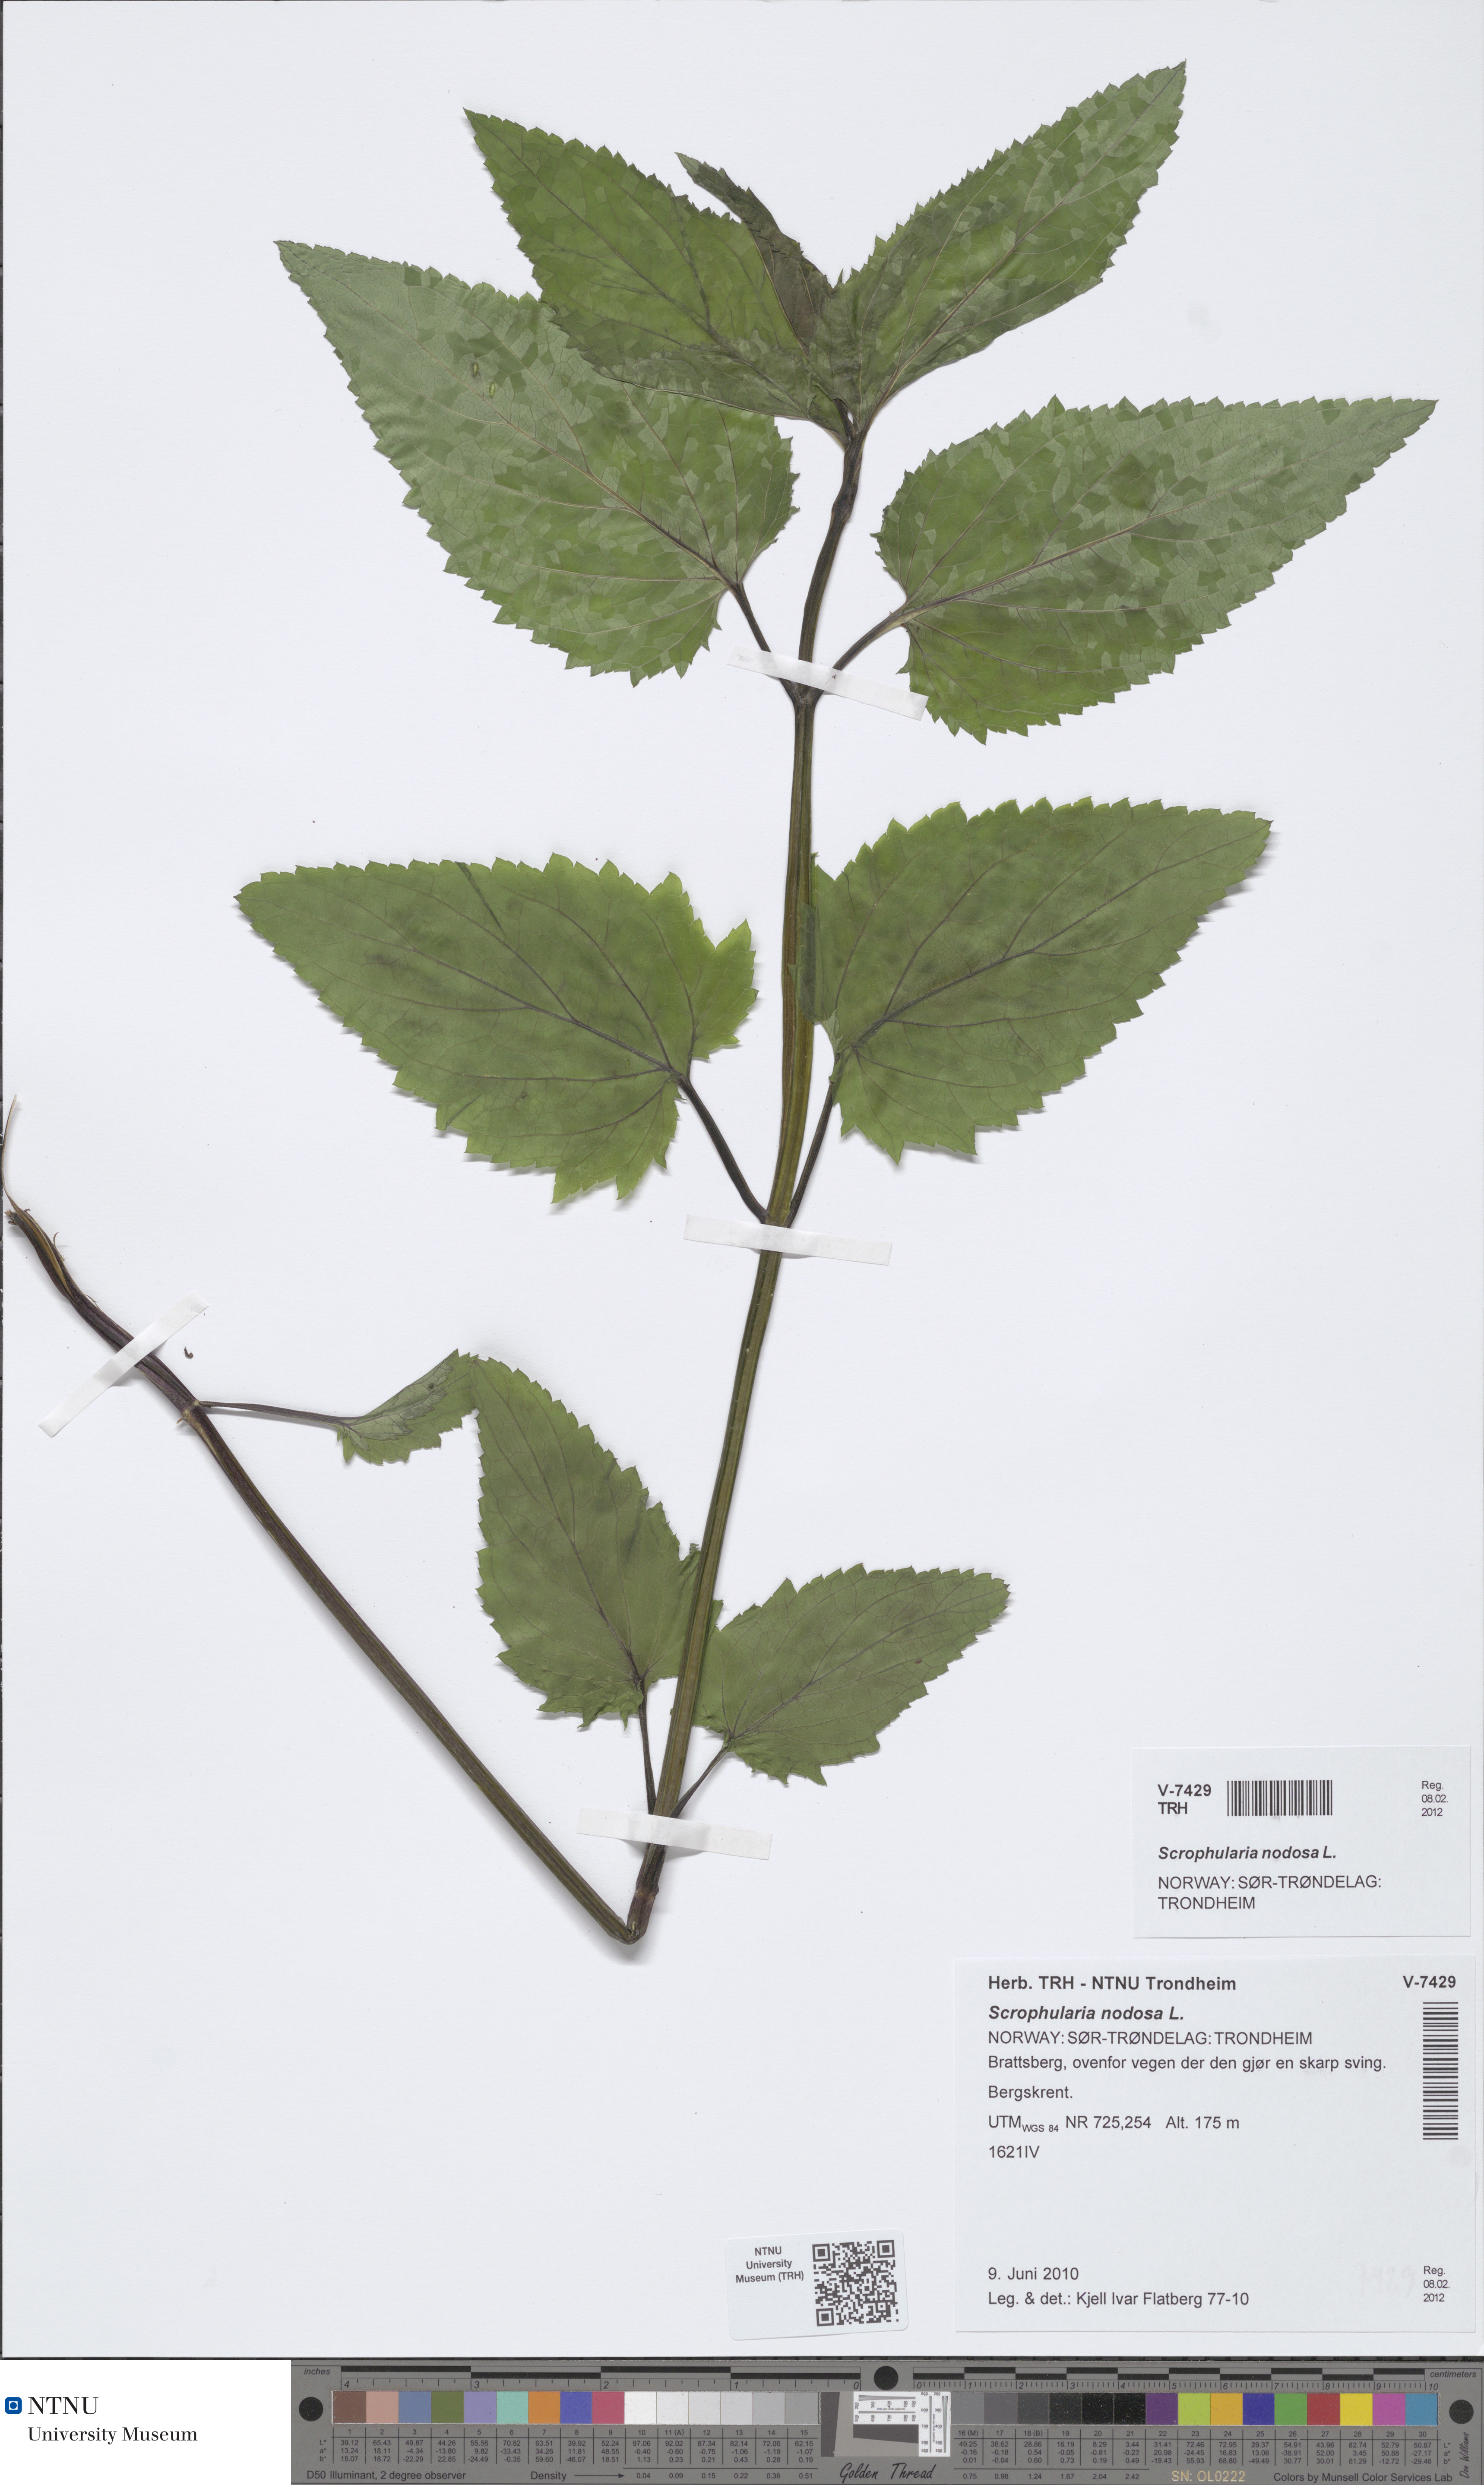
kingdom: Plantae
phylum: Tracheophyta
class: Magnoliopsida
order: Lamiales
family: Scrophulariaceae
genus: Scrophularia
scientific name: Scrophularia nodosa
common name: Common figwort
